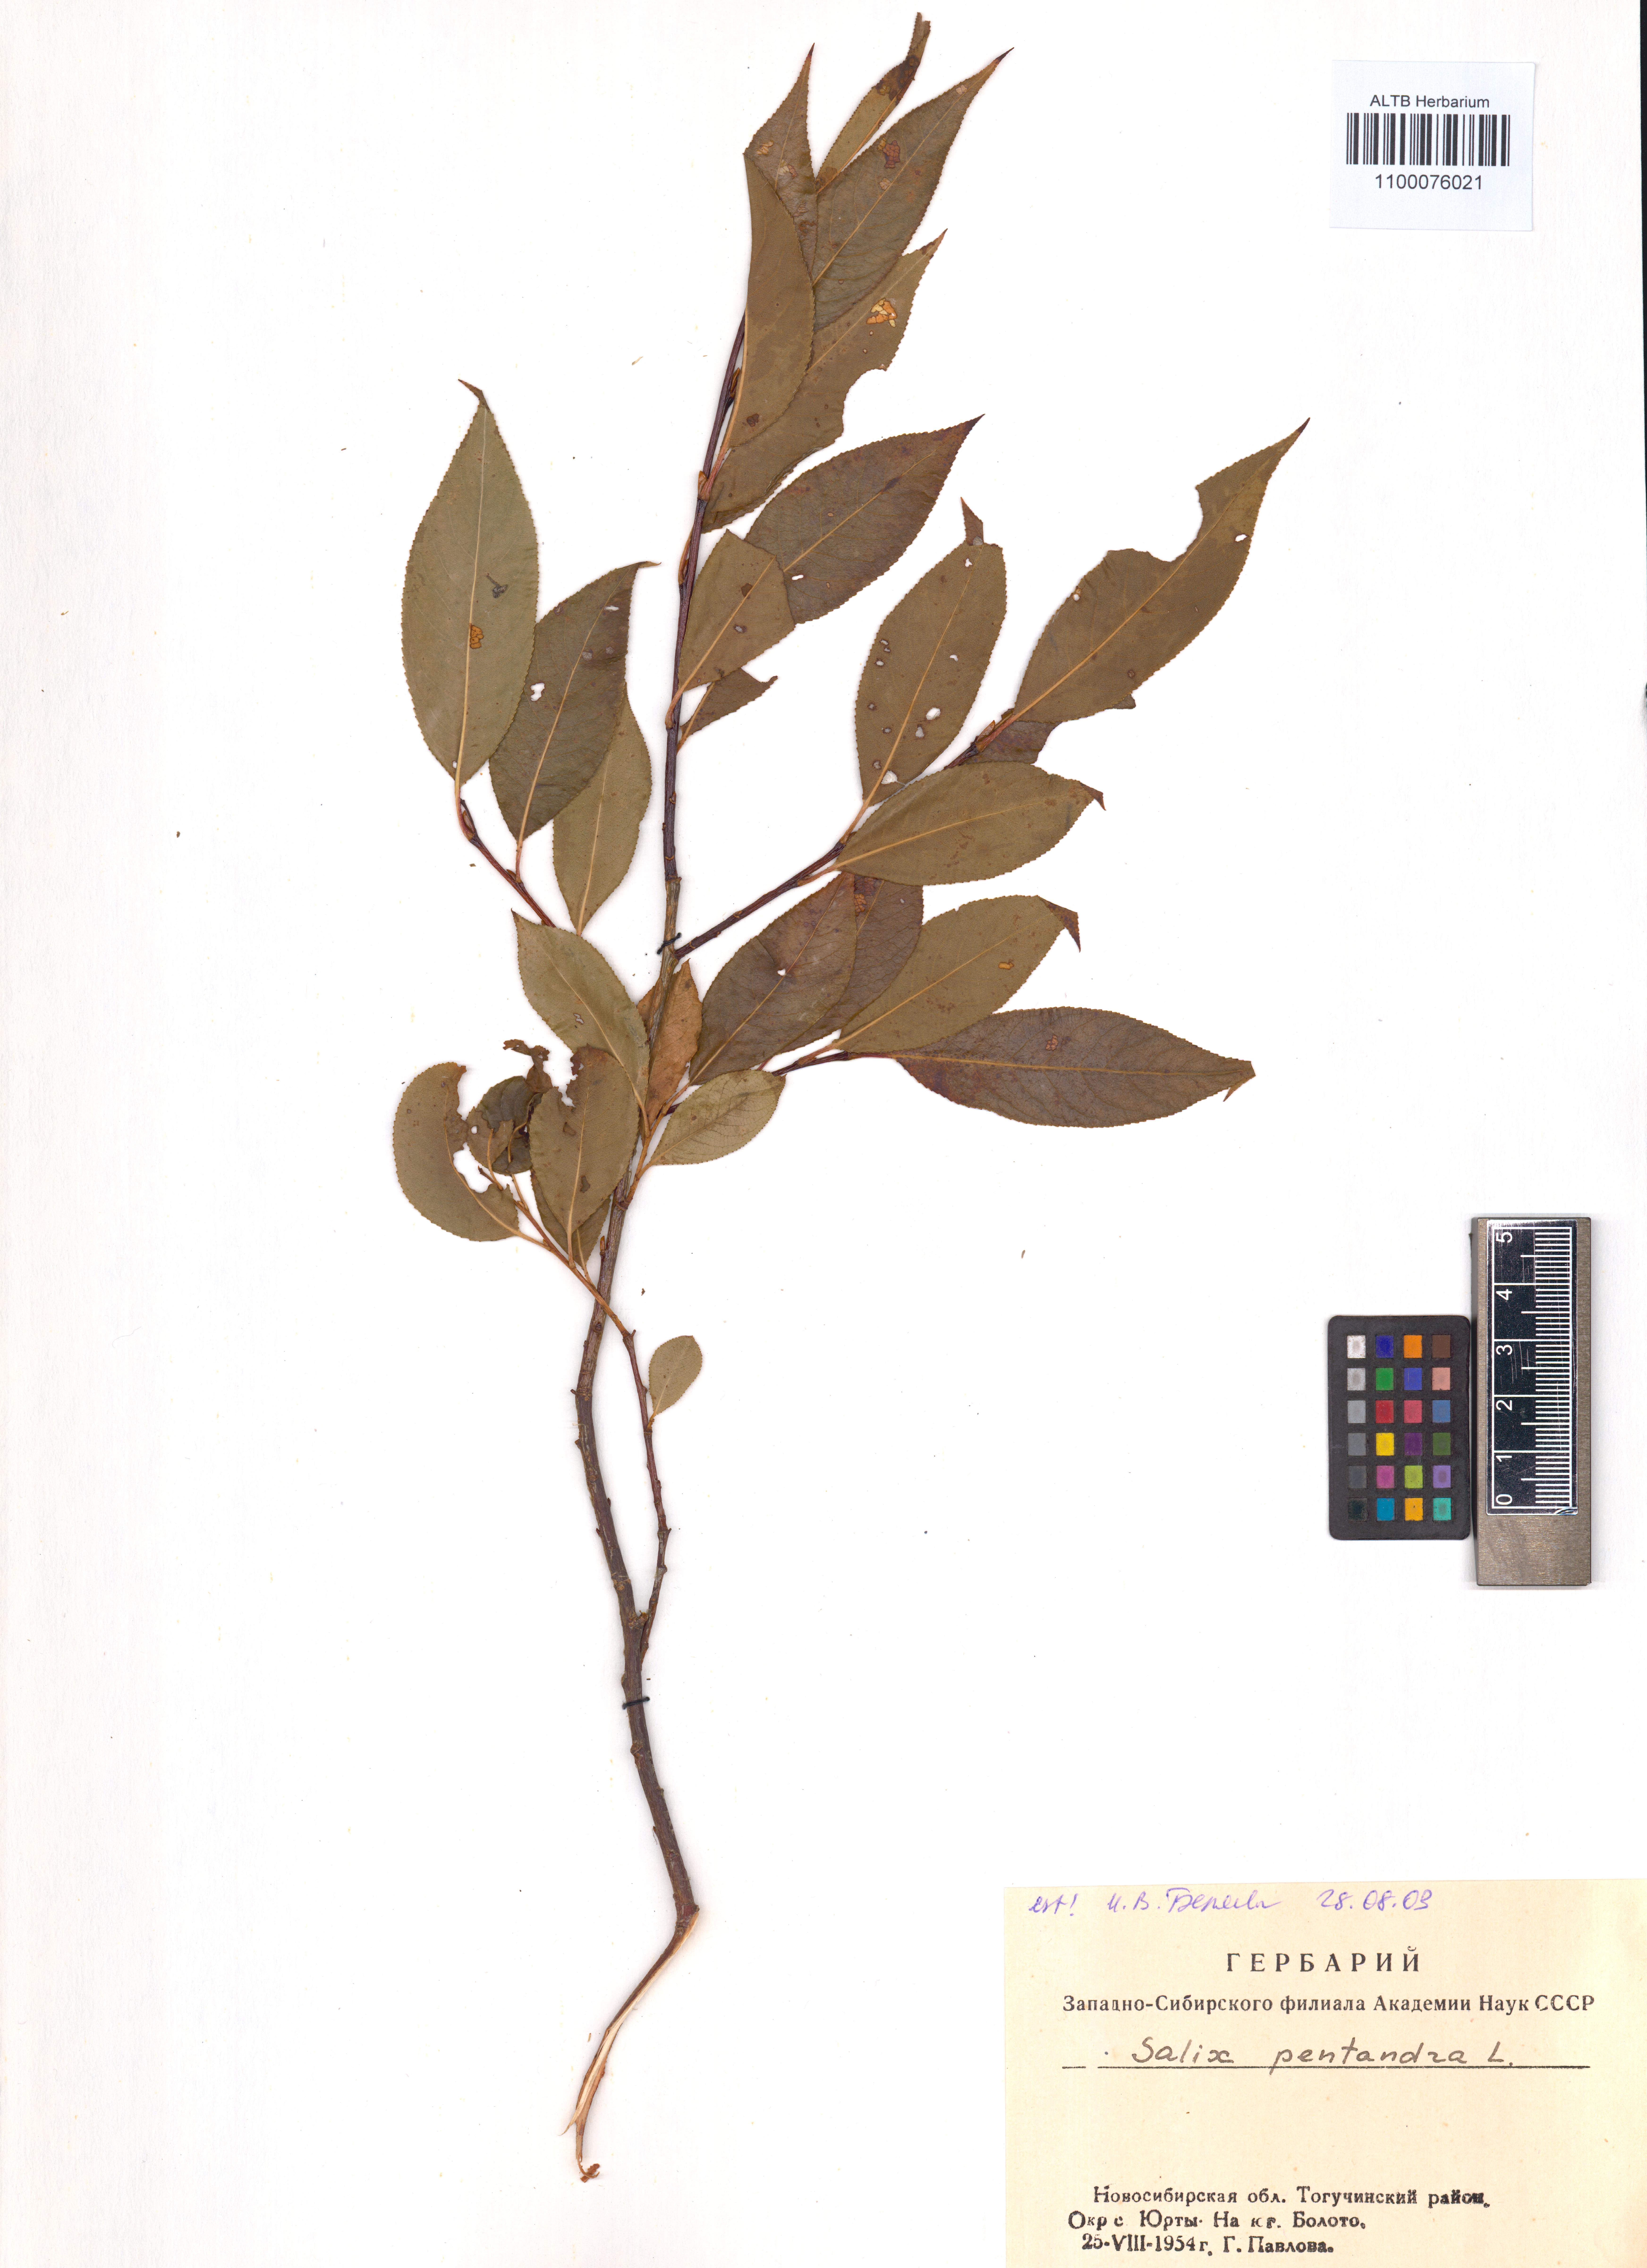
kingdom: Plantae
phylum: Tracheophyta
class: Magnoliopsida
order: Malpighiales
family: Salicaceae
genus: Salix
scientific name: Salix pentandra
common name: Bay willow
